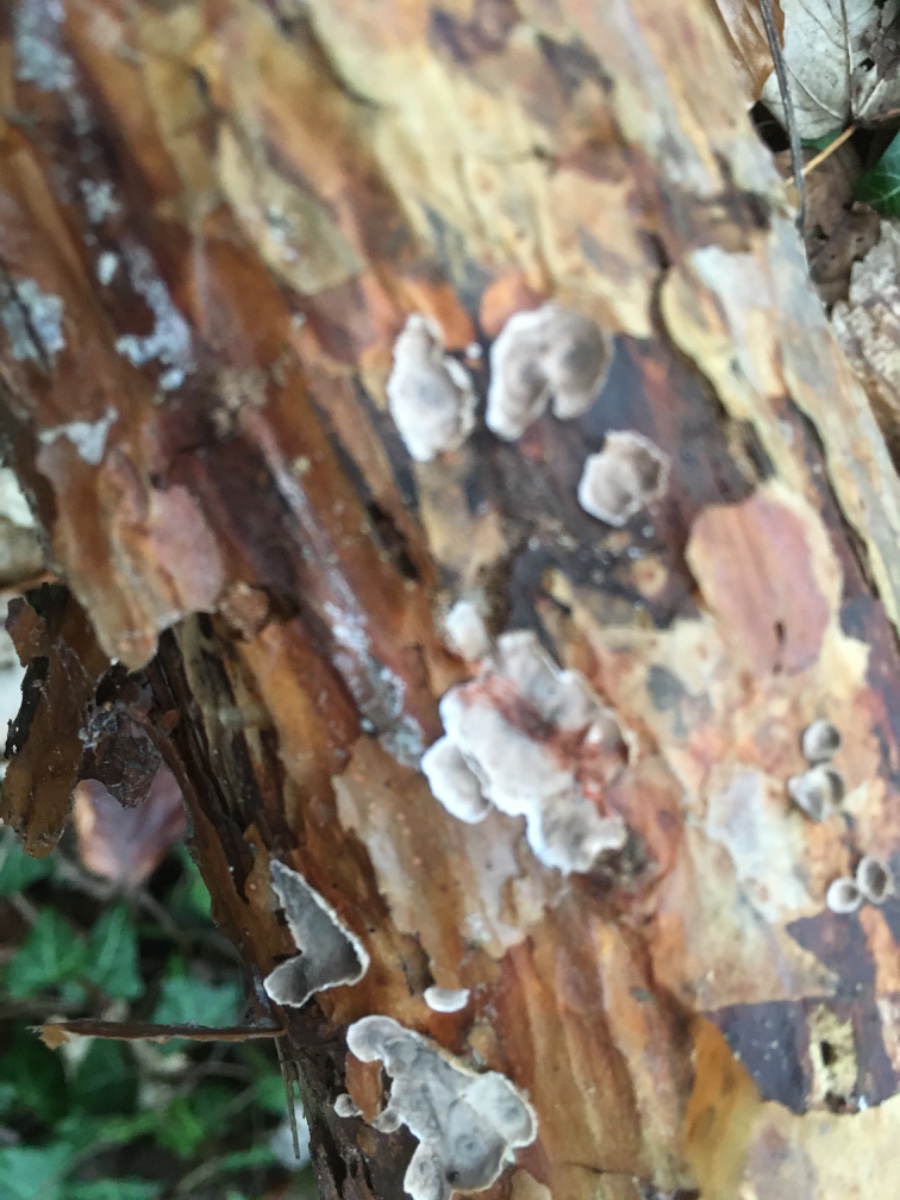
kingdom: Fungi
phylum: Basidiomycota
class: Agaricomycetes
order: Russulales
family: Stereaceae
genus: Stereum
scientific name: Stereum sanguinolentum
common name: blødende lædersvamp
